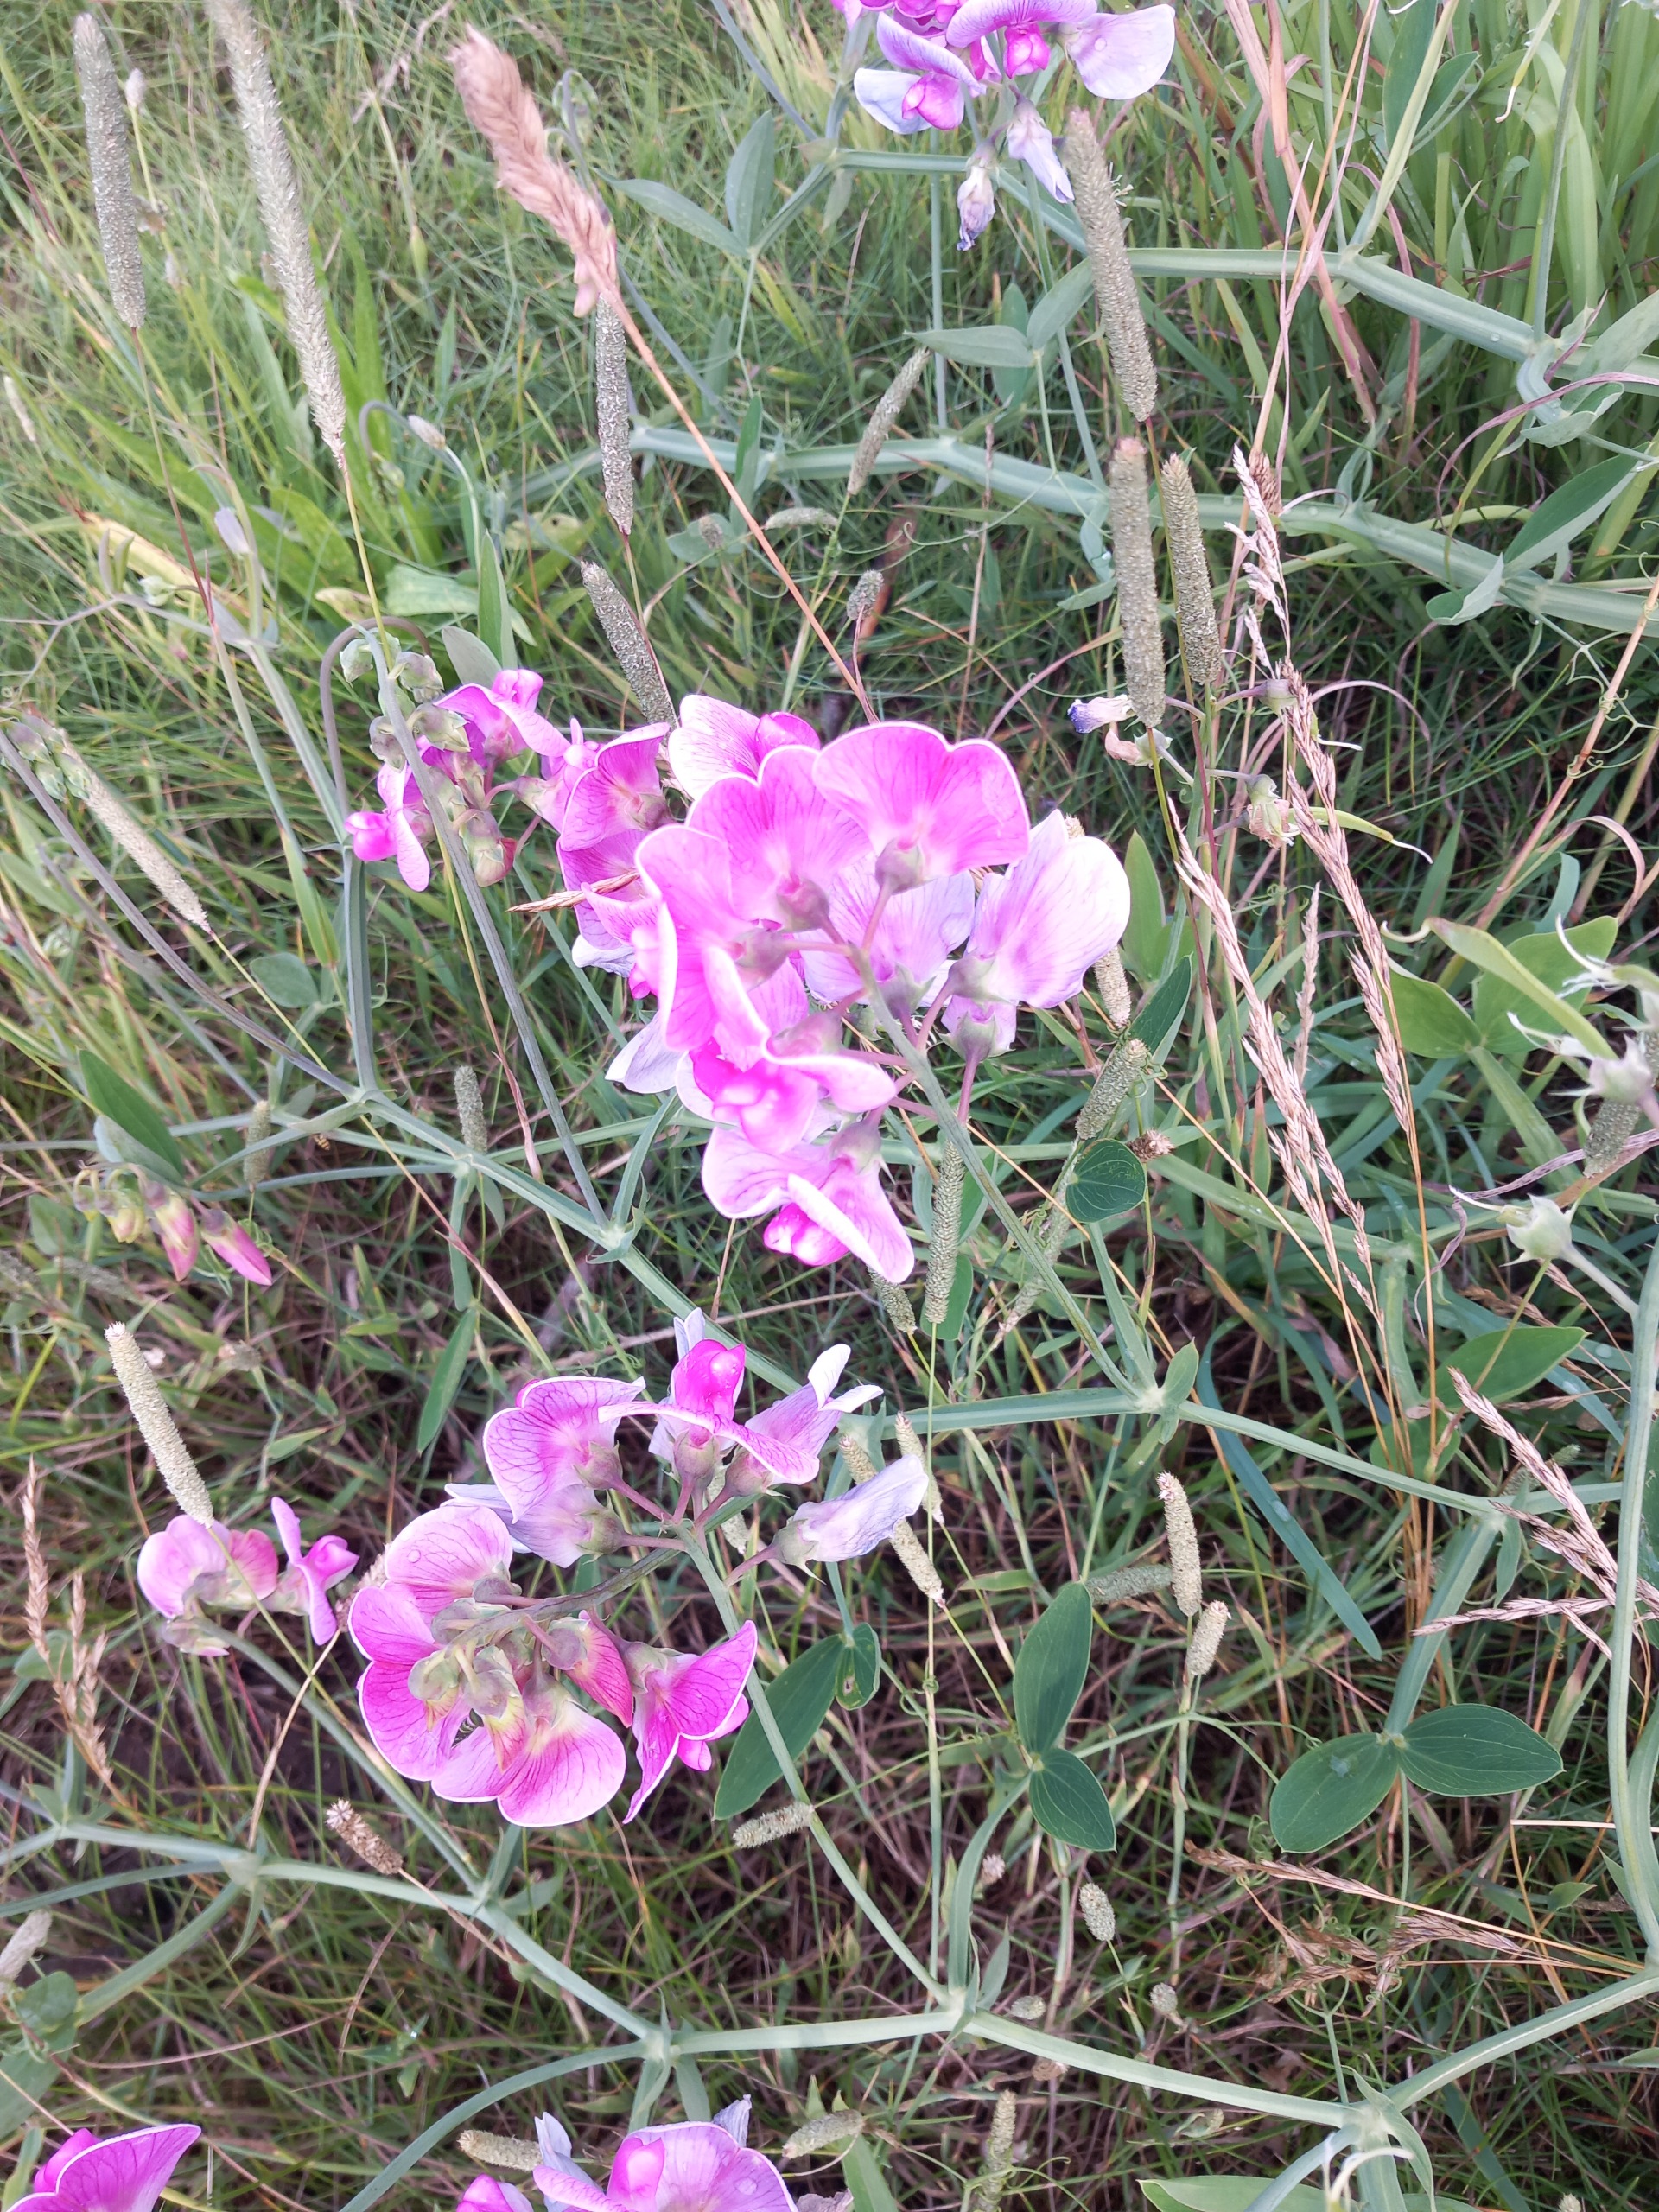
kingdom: Plantae
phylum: Tracheophyta
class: Magnoliopsida
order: Fabales
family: Fabaceae
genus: Lathyrus
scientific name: Lathyrus latifolius
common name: Flerårig ærteblomst (underart)
